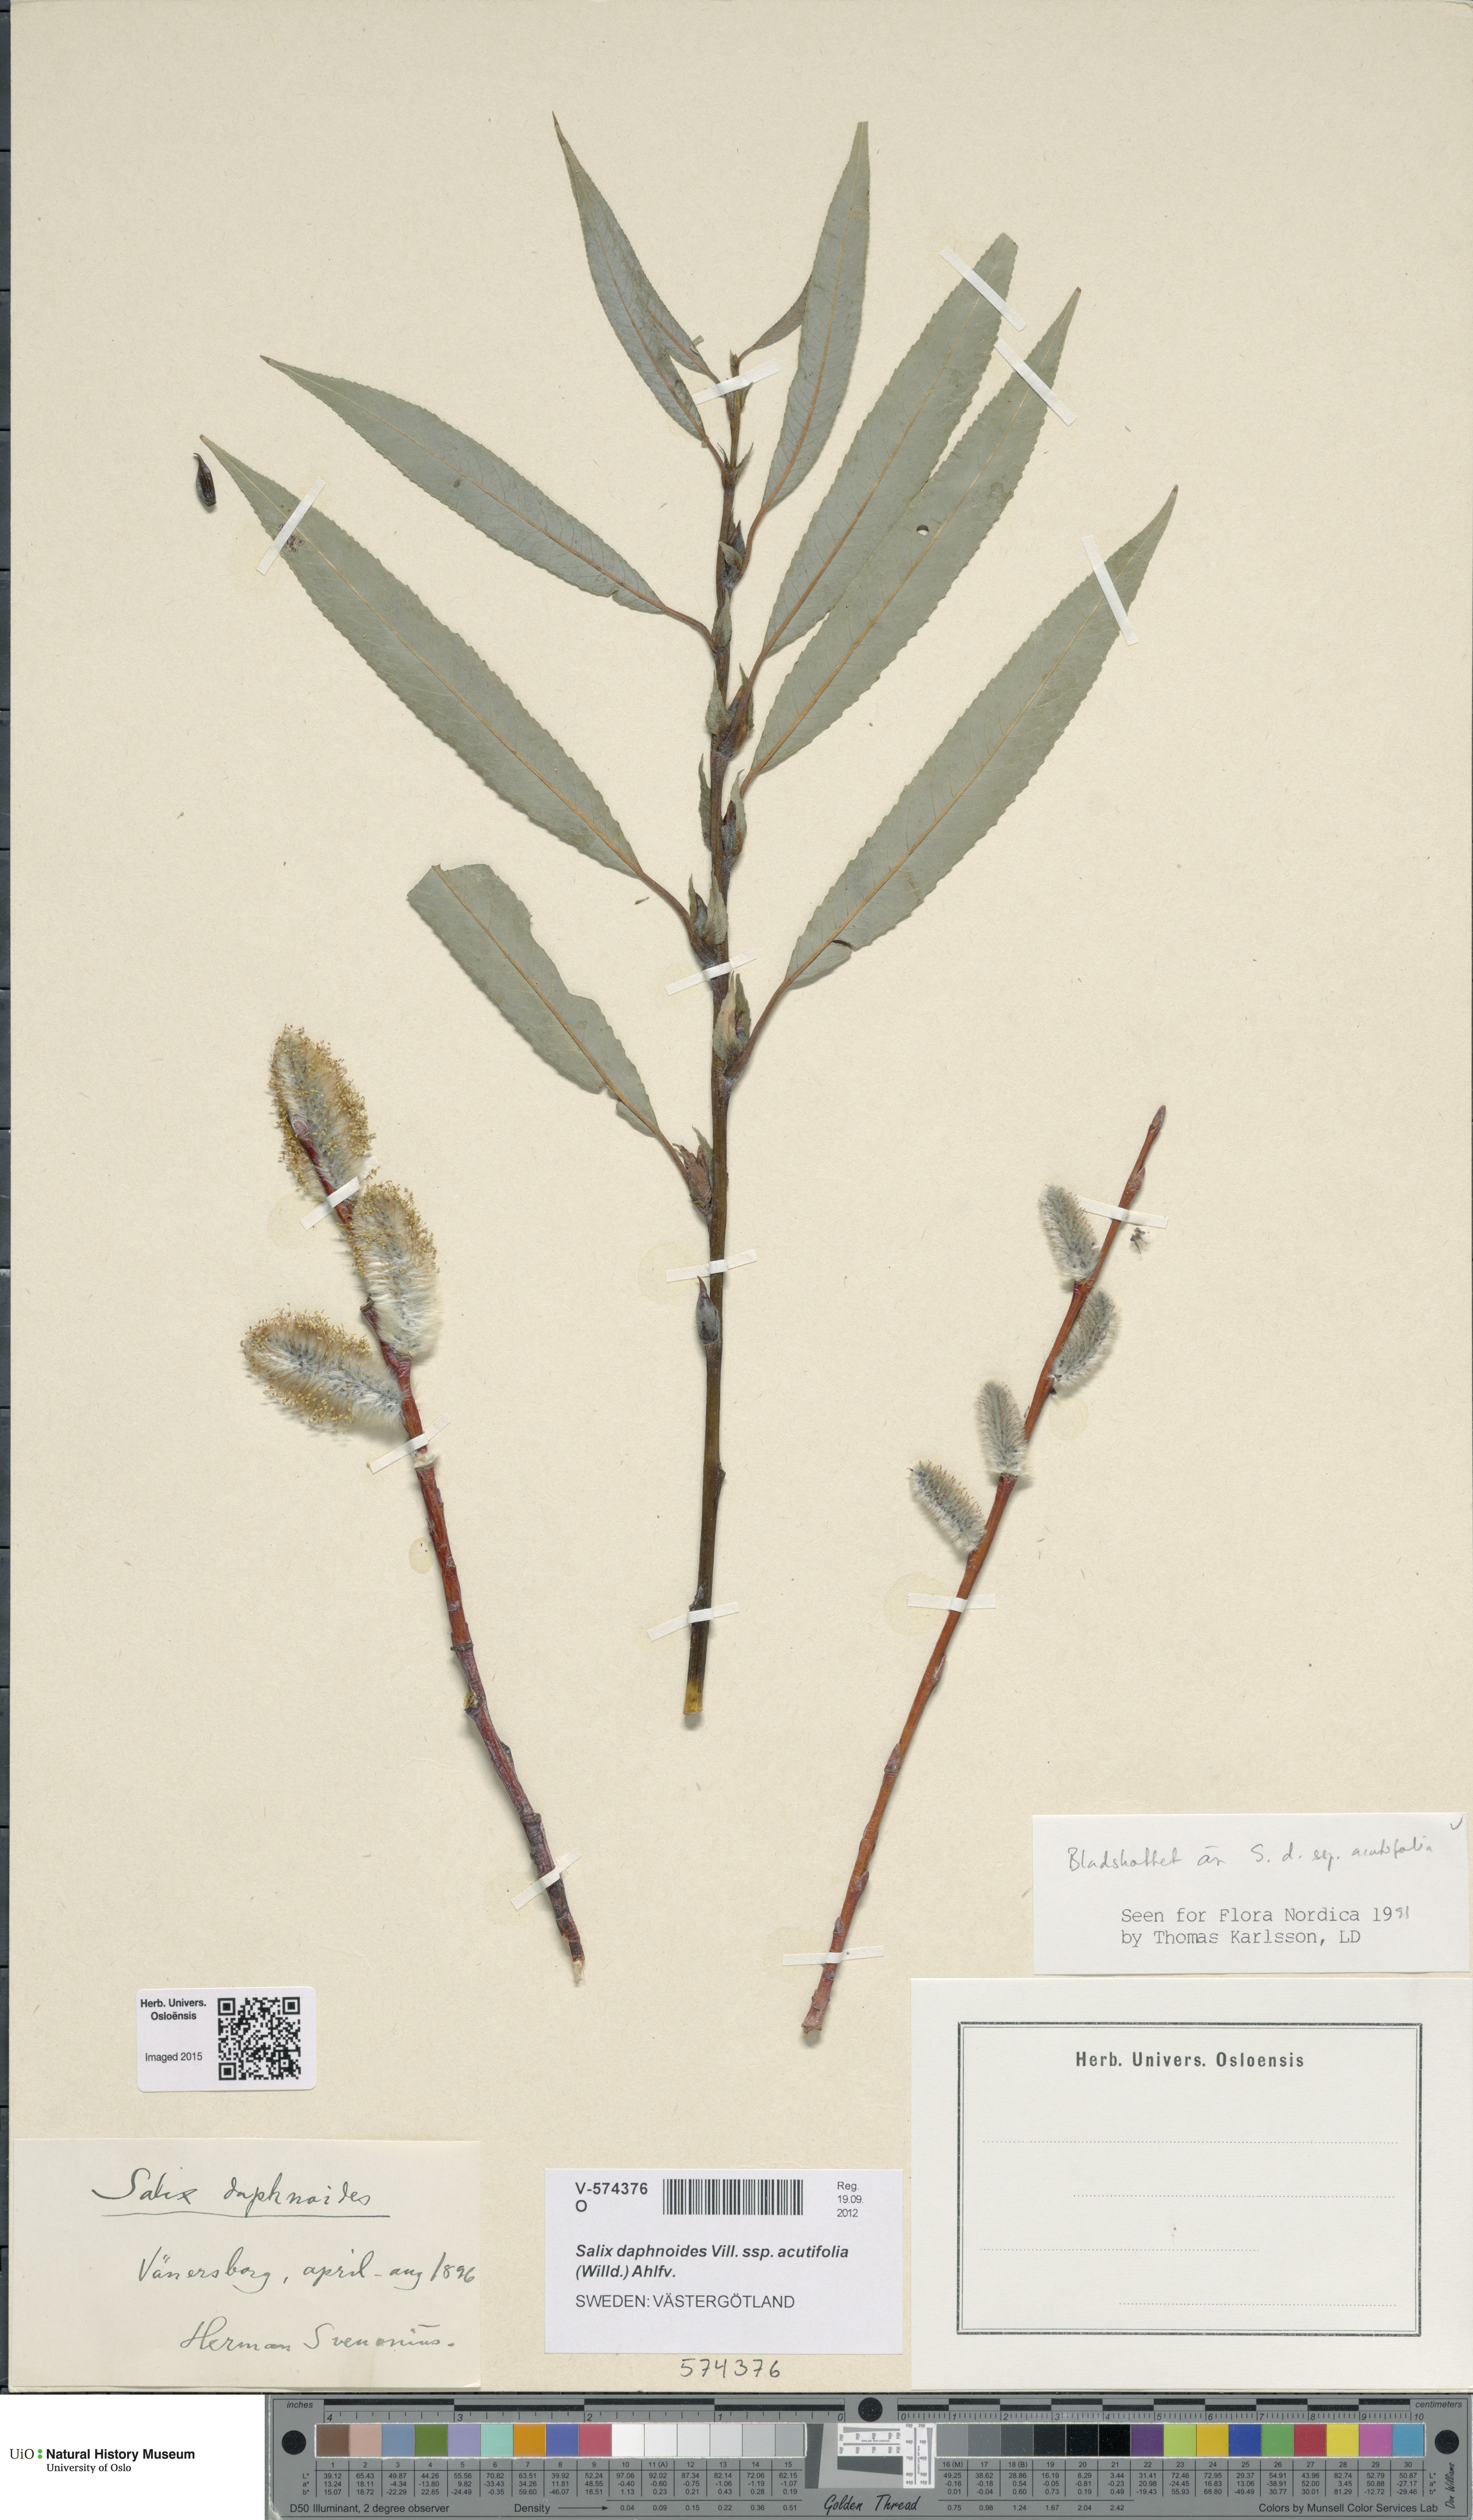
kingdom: Plantae
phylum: Tracheophyta
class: Magnoliopsida
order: Malpighiales
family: Salicaceae
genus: Salix
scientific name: Salix acutifolia
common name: Siberian violet-willow
